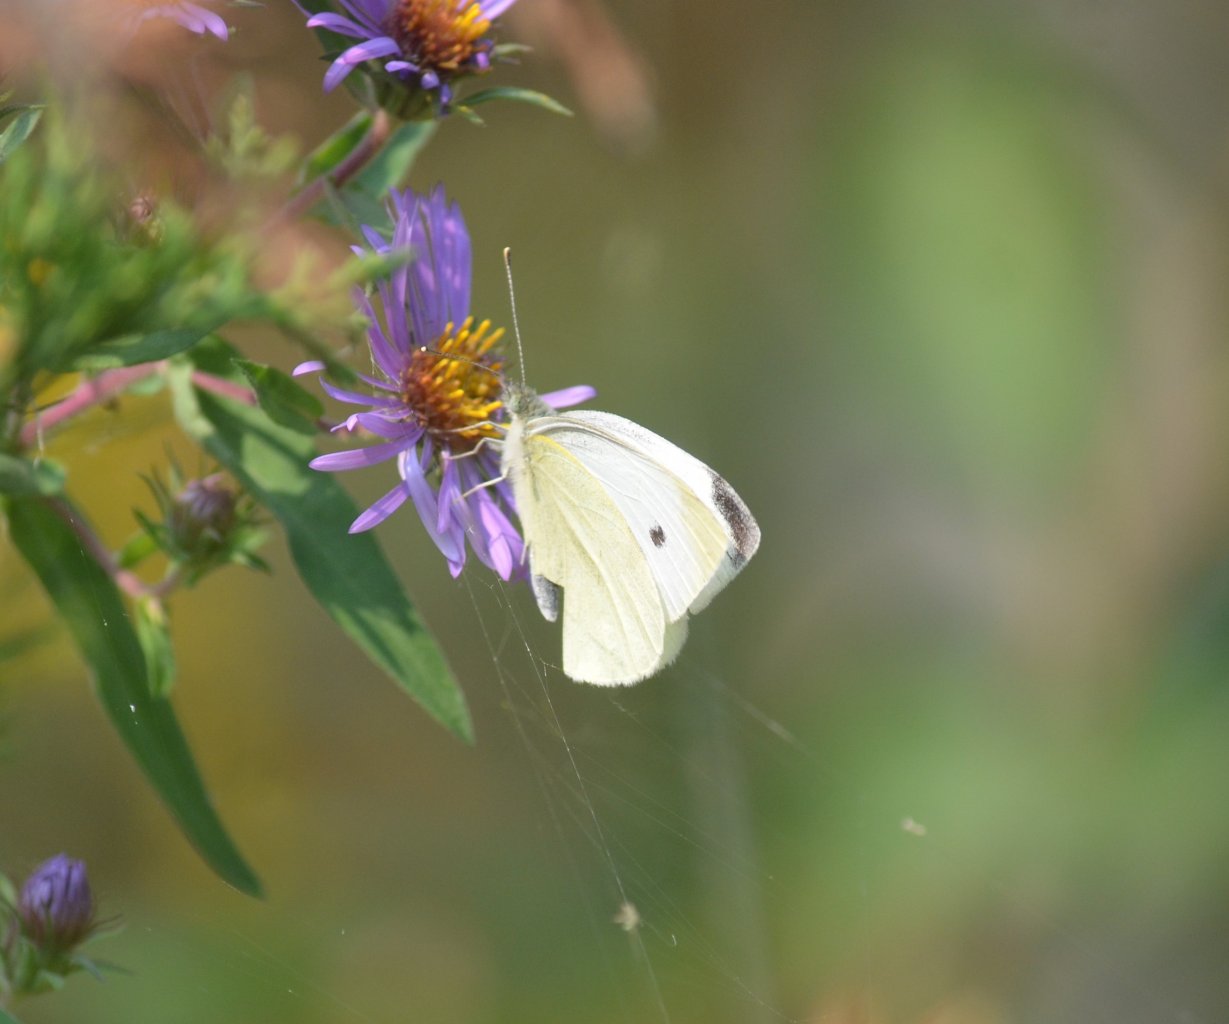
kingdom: Animalia
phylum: Arthropoda
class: Insecta
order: Lepidoptera
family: Pieridae
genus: Pieris
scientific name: Pieris rapae
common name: Cabbage White
